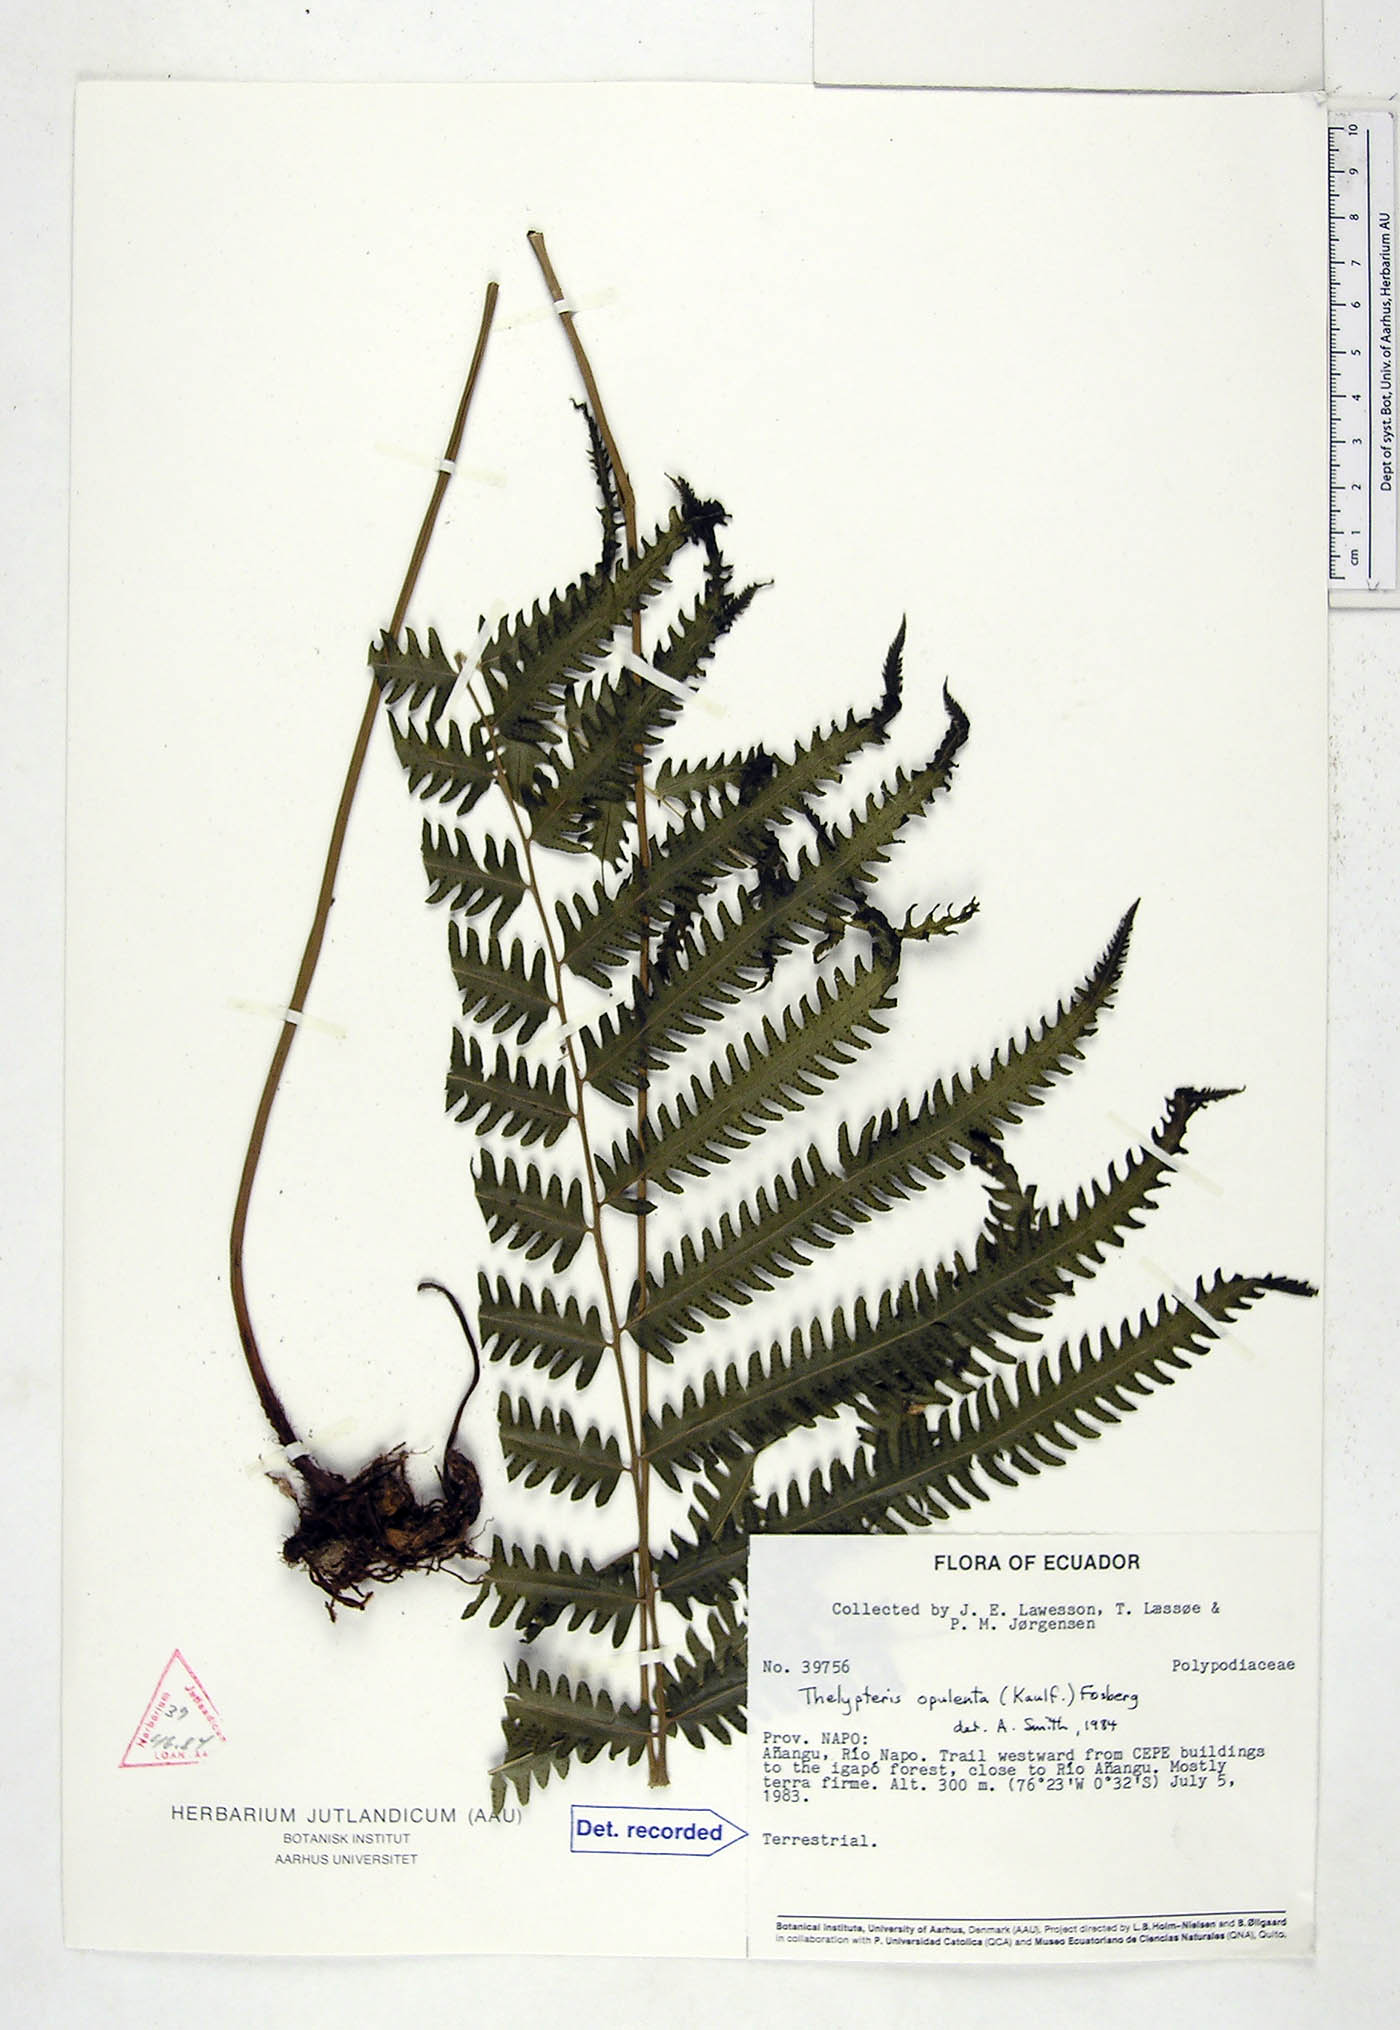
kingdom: Plantae
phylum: Tracheophyta
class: Polypodiopsida
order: Polypodiales
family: Thelypteridaceae
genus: Amblovenatum
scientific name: Amblovenatum opulentum
